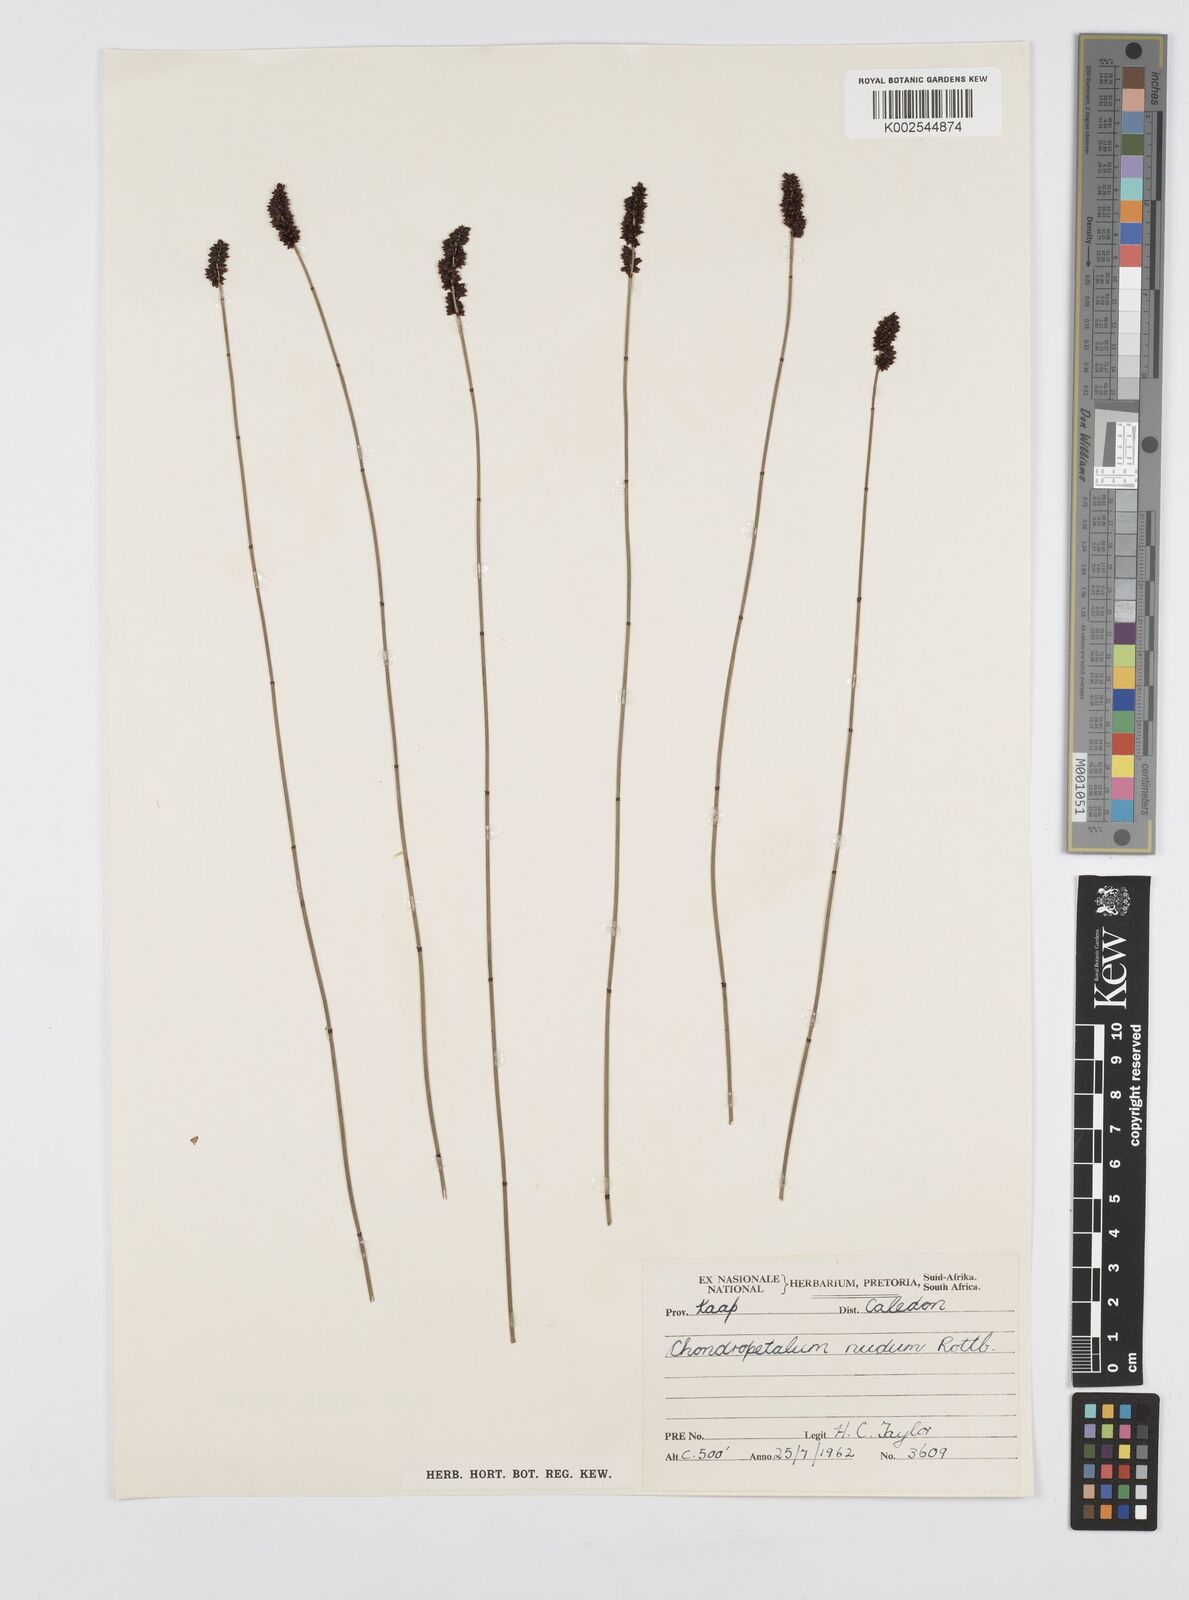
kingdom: Plantae
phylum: Tracheophyta
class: Liliopsida
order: Poales
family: Restionaceae
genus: Elegia
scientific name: Elegia nuda
